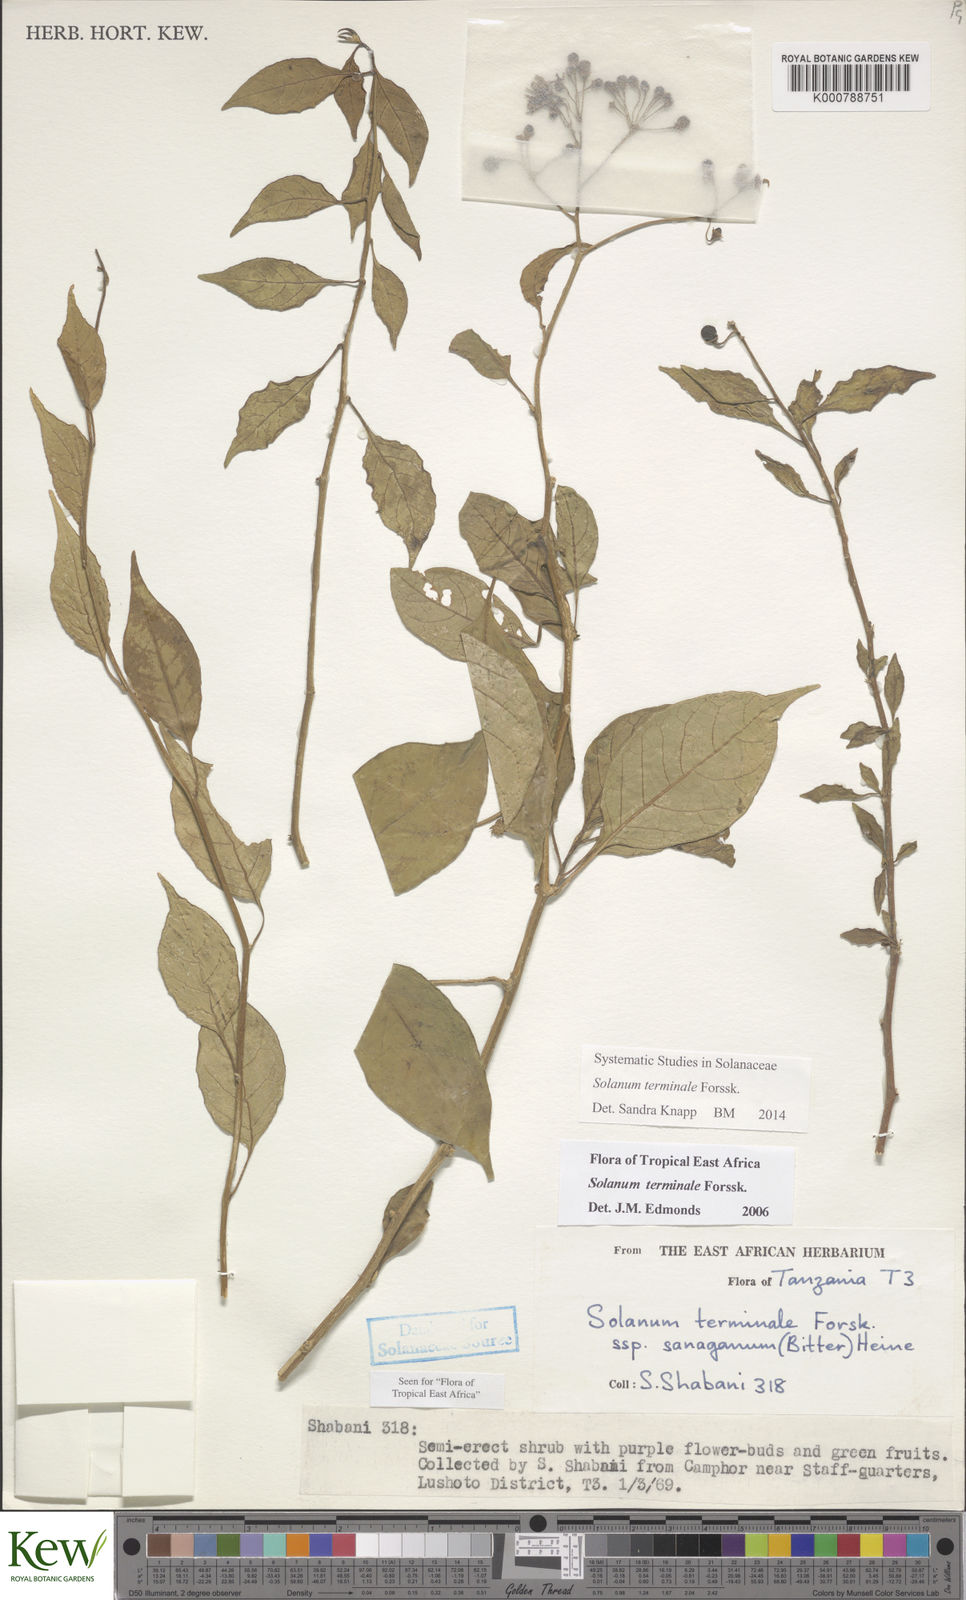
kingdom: Plantae
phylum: Tracheophyta
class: Magnoliopsida
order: Solanales
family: Solanaceae
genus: Solanum
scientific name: Solanum terminale
